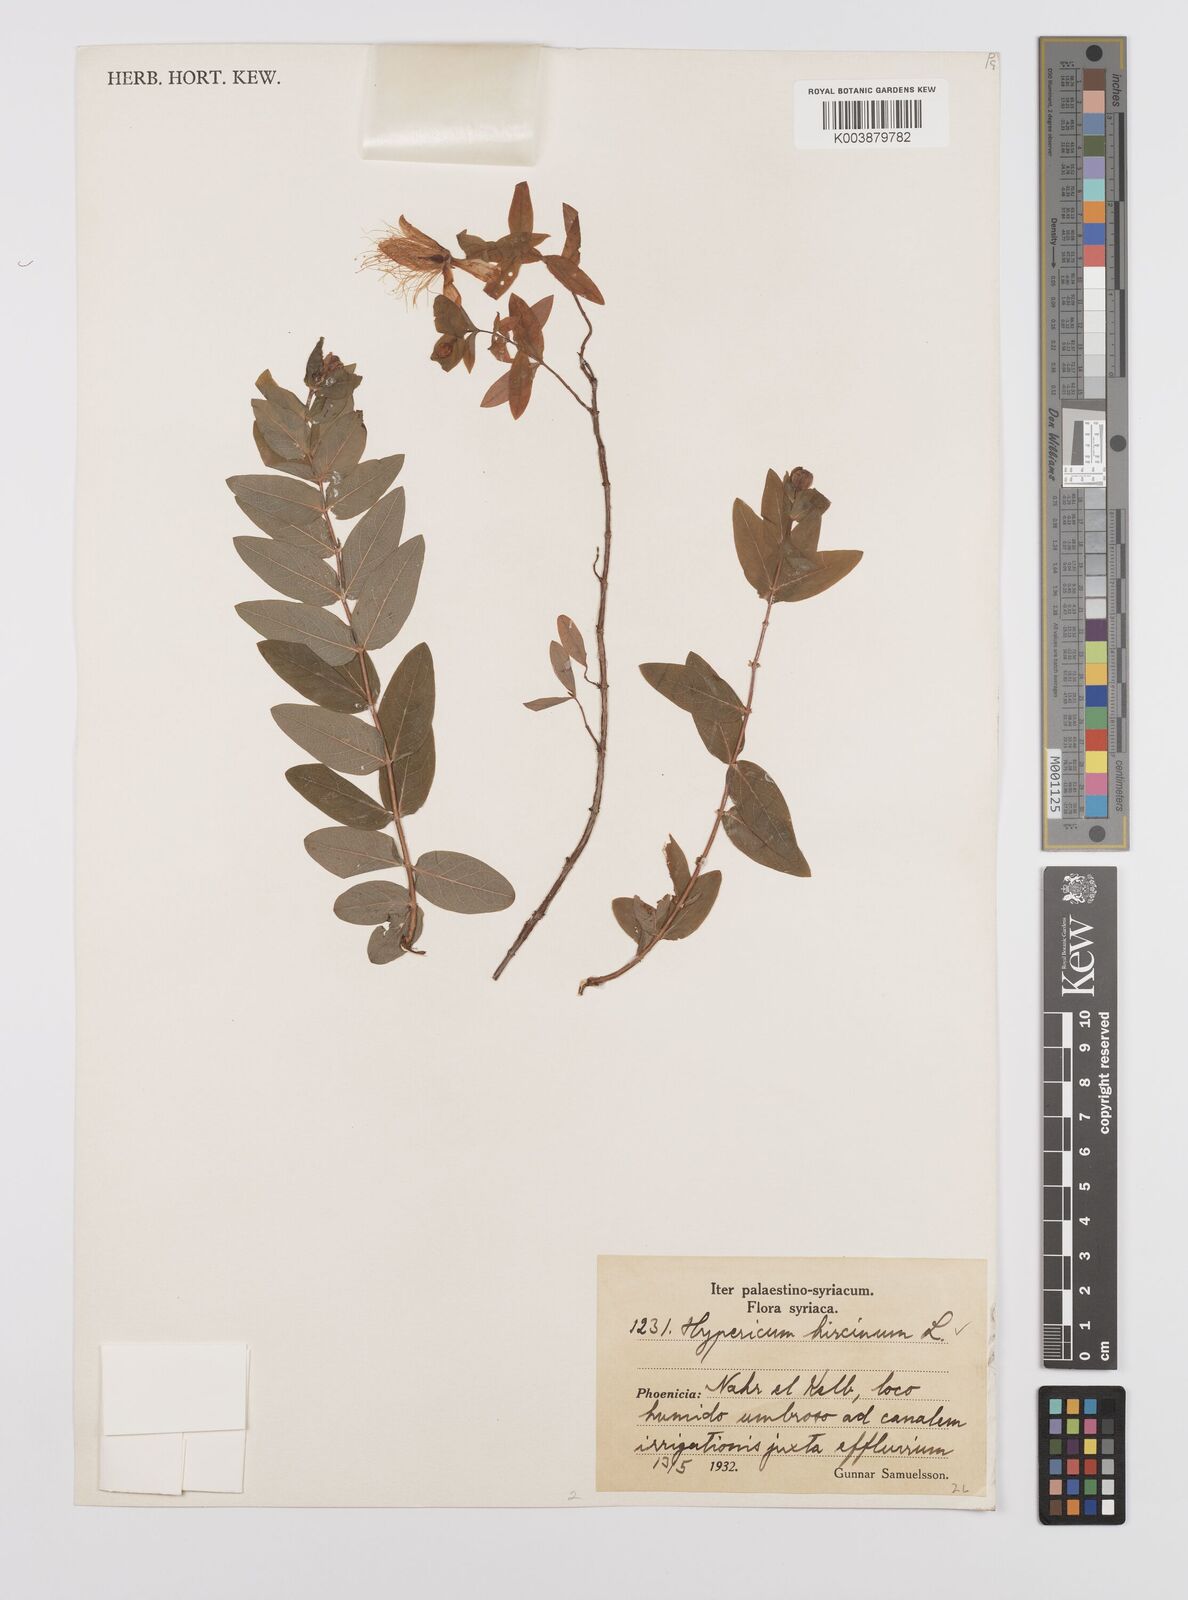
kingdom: Plantae
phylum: Tracheophyta
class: Magnoliopsida
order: Malpighiales
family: Hypericaceae
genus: Hypericum
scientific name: Hypericum hircinum
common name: Stinking tutsan
